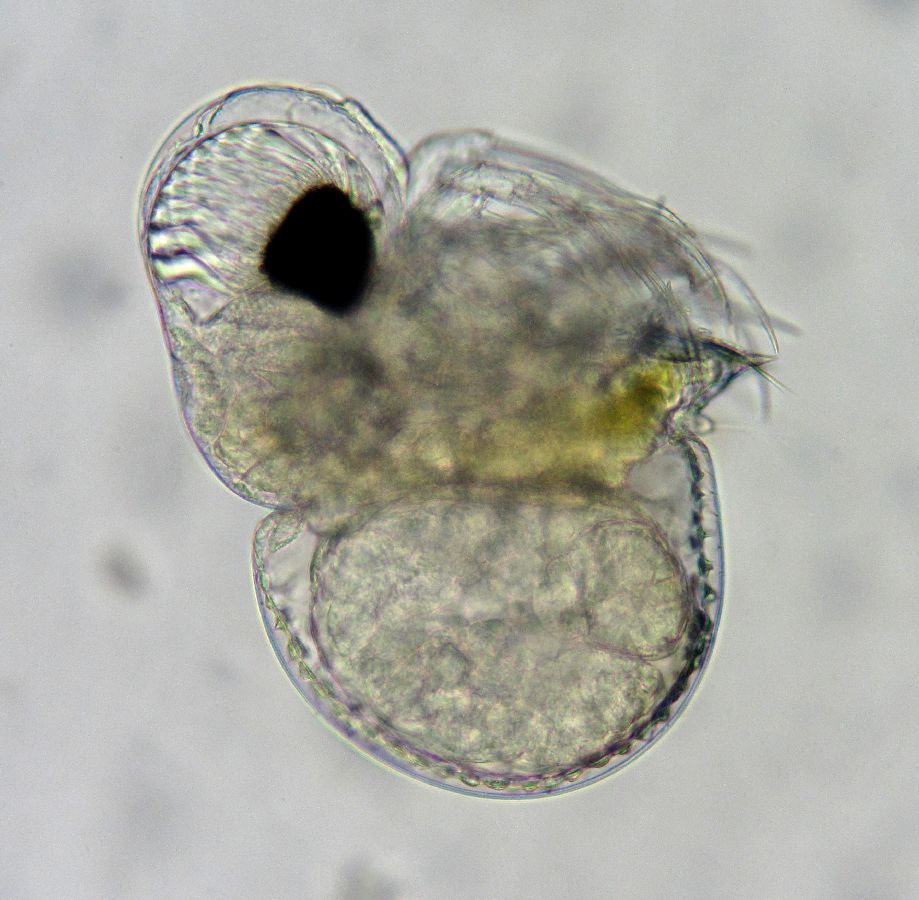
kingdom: Animalia
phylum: Arthropoda
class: Branchiopoda
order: Diplostraca
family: Podonidae
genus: Podon
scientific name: Podon leuckarti
